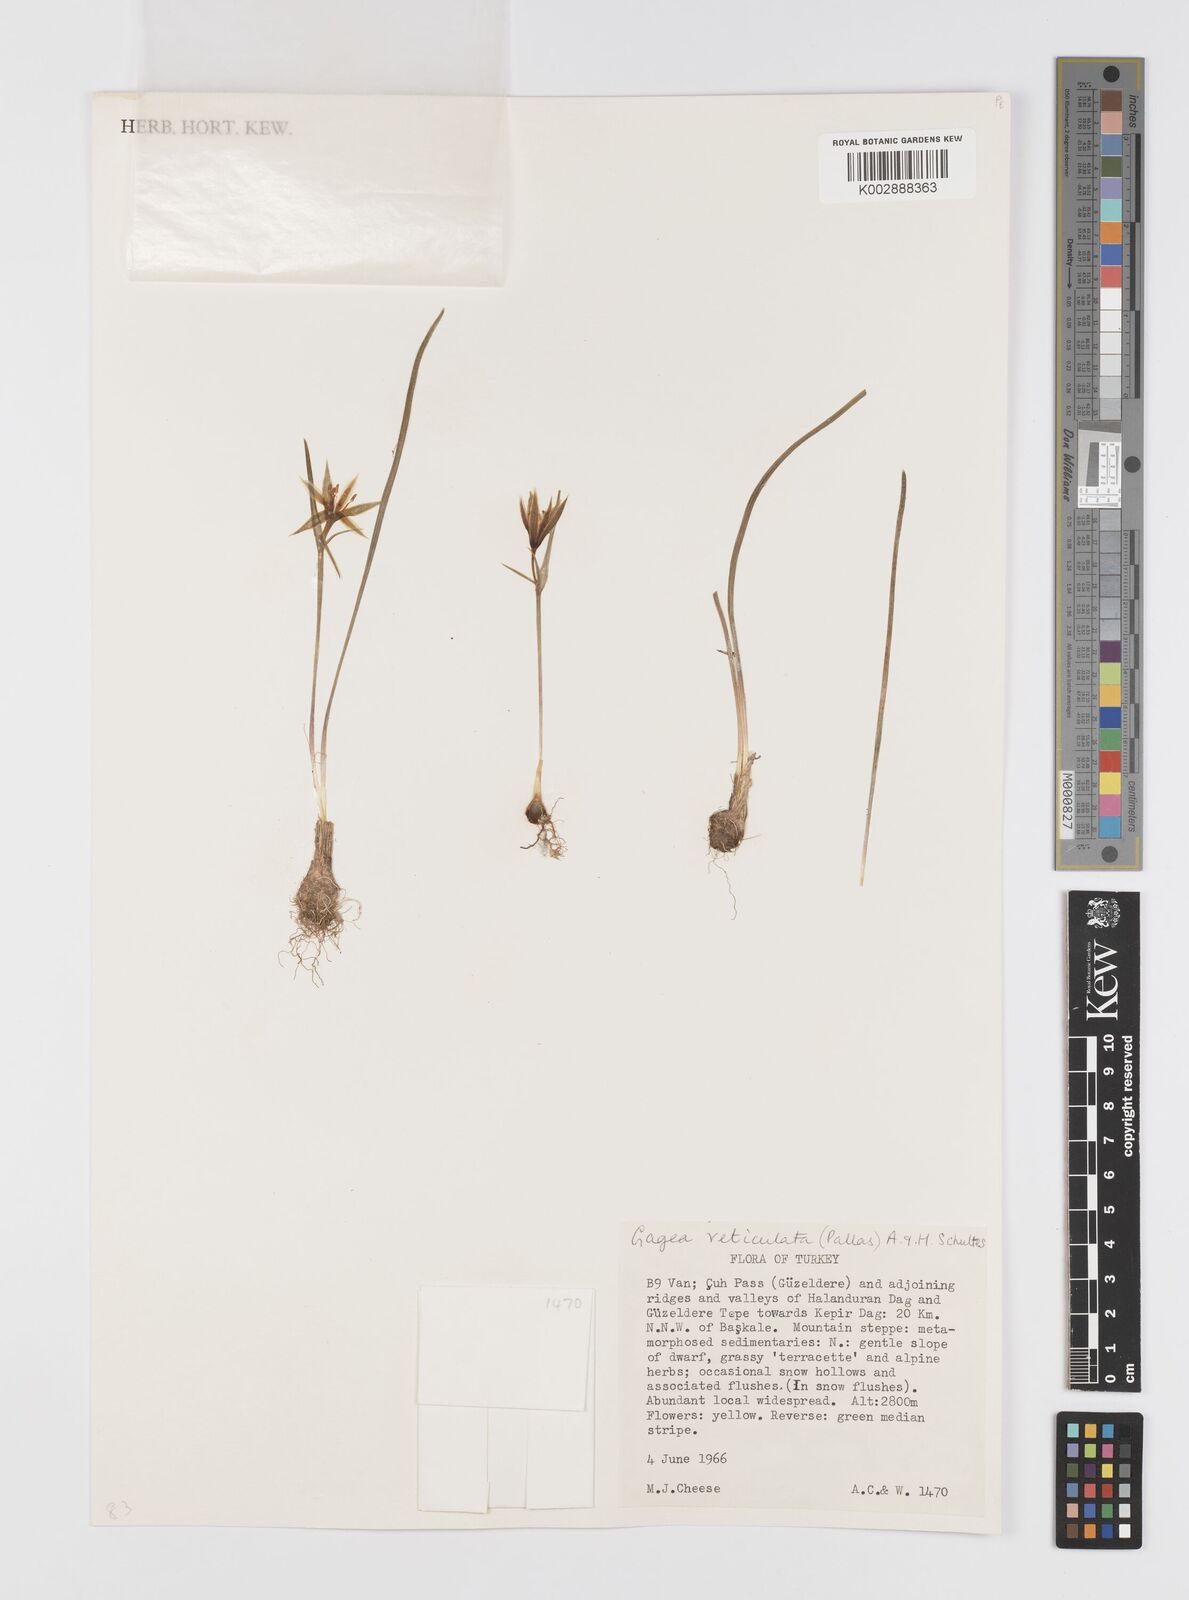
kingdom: Plantae
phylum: Tracheophyta
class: Liliopsida
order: Liliales
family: Liliaceae
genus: Gagea
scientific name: Gagea taurica
